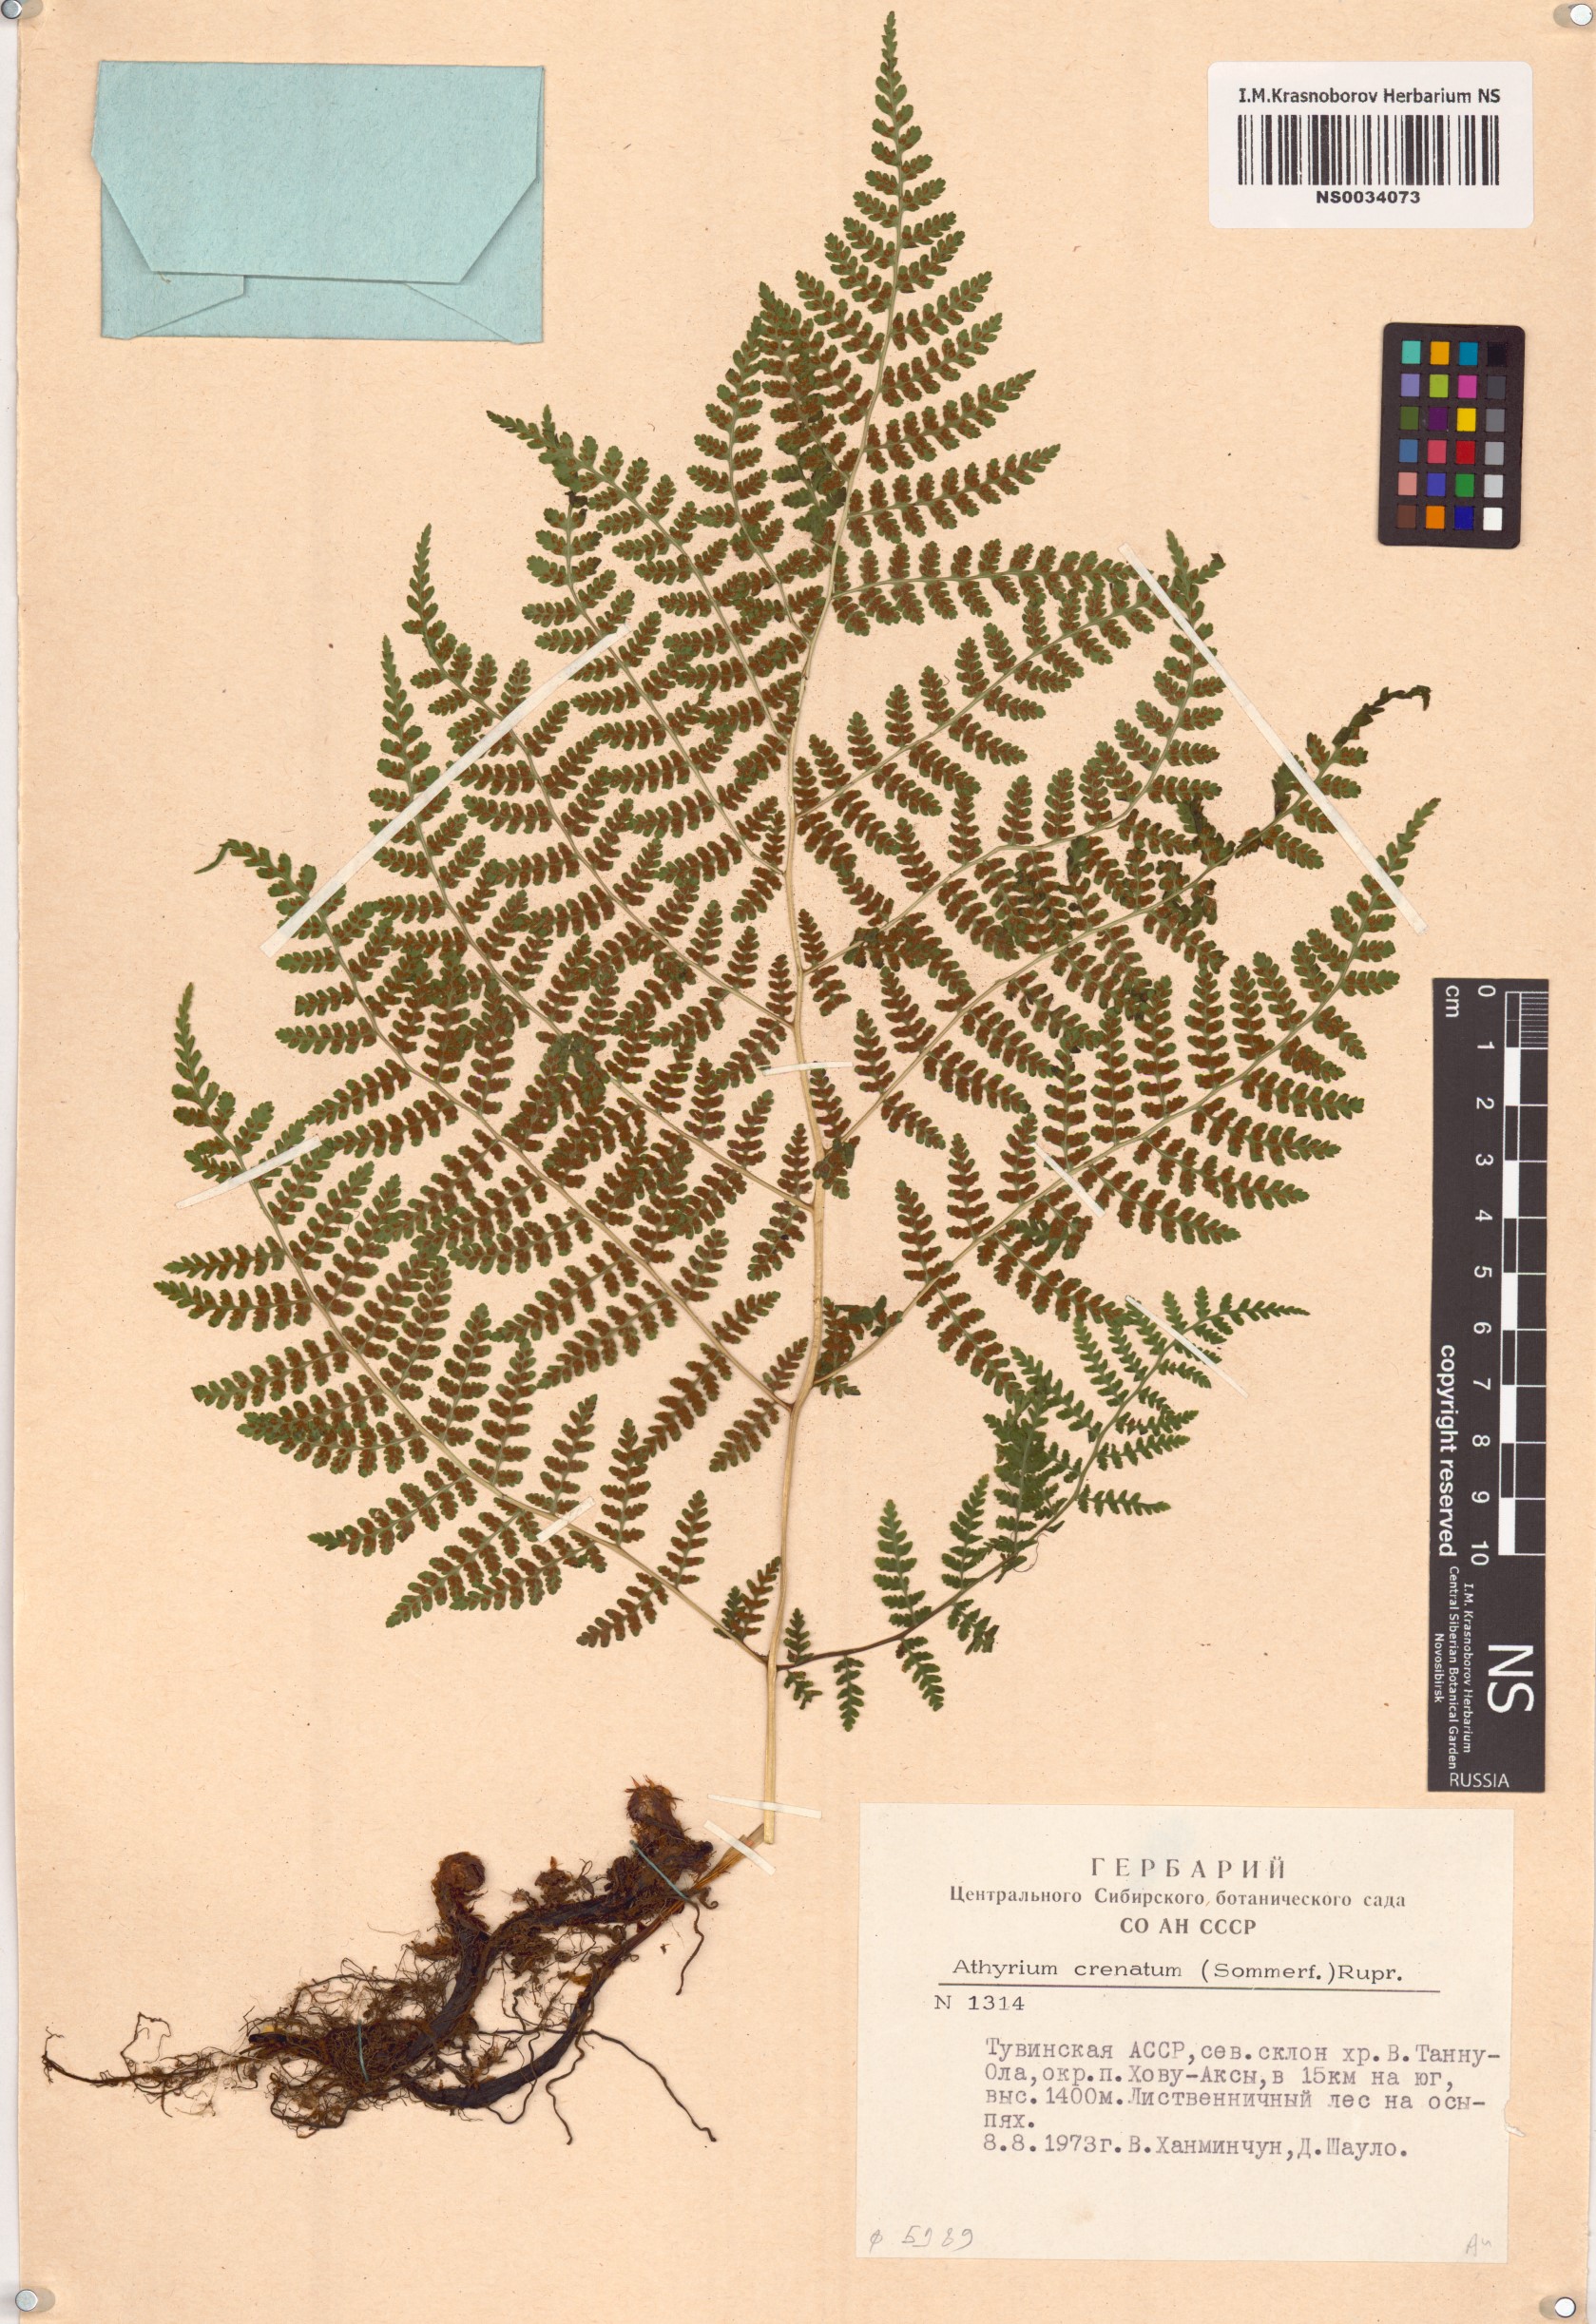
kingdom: Plantae
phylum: Tracheophyta
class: Polypodiopsida
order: Polypodiales
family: Athyriaceae
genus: Diplazium
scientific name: Diplazium sibiricum
